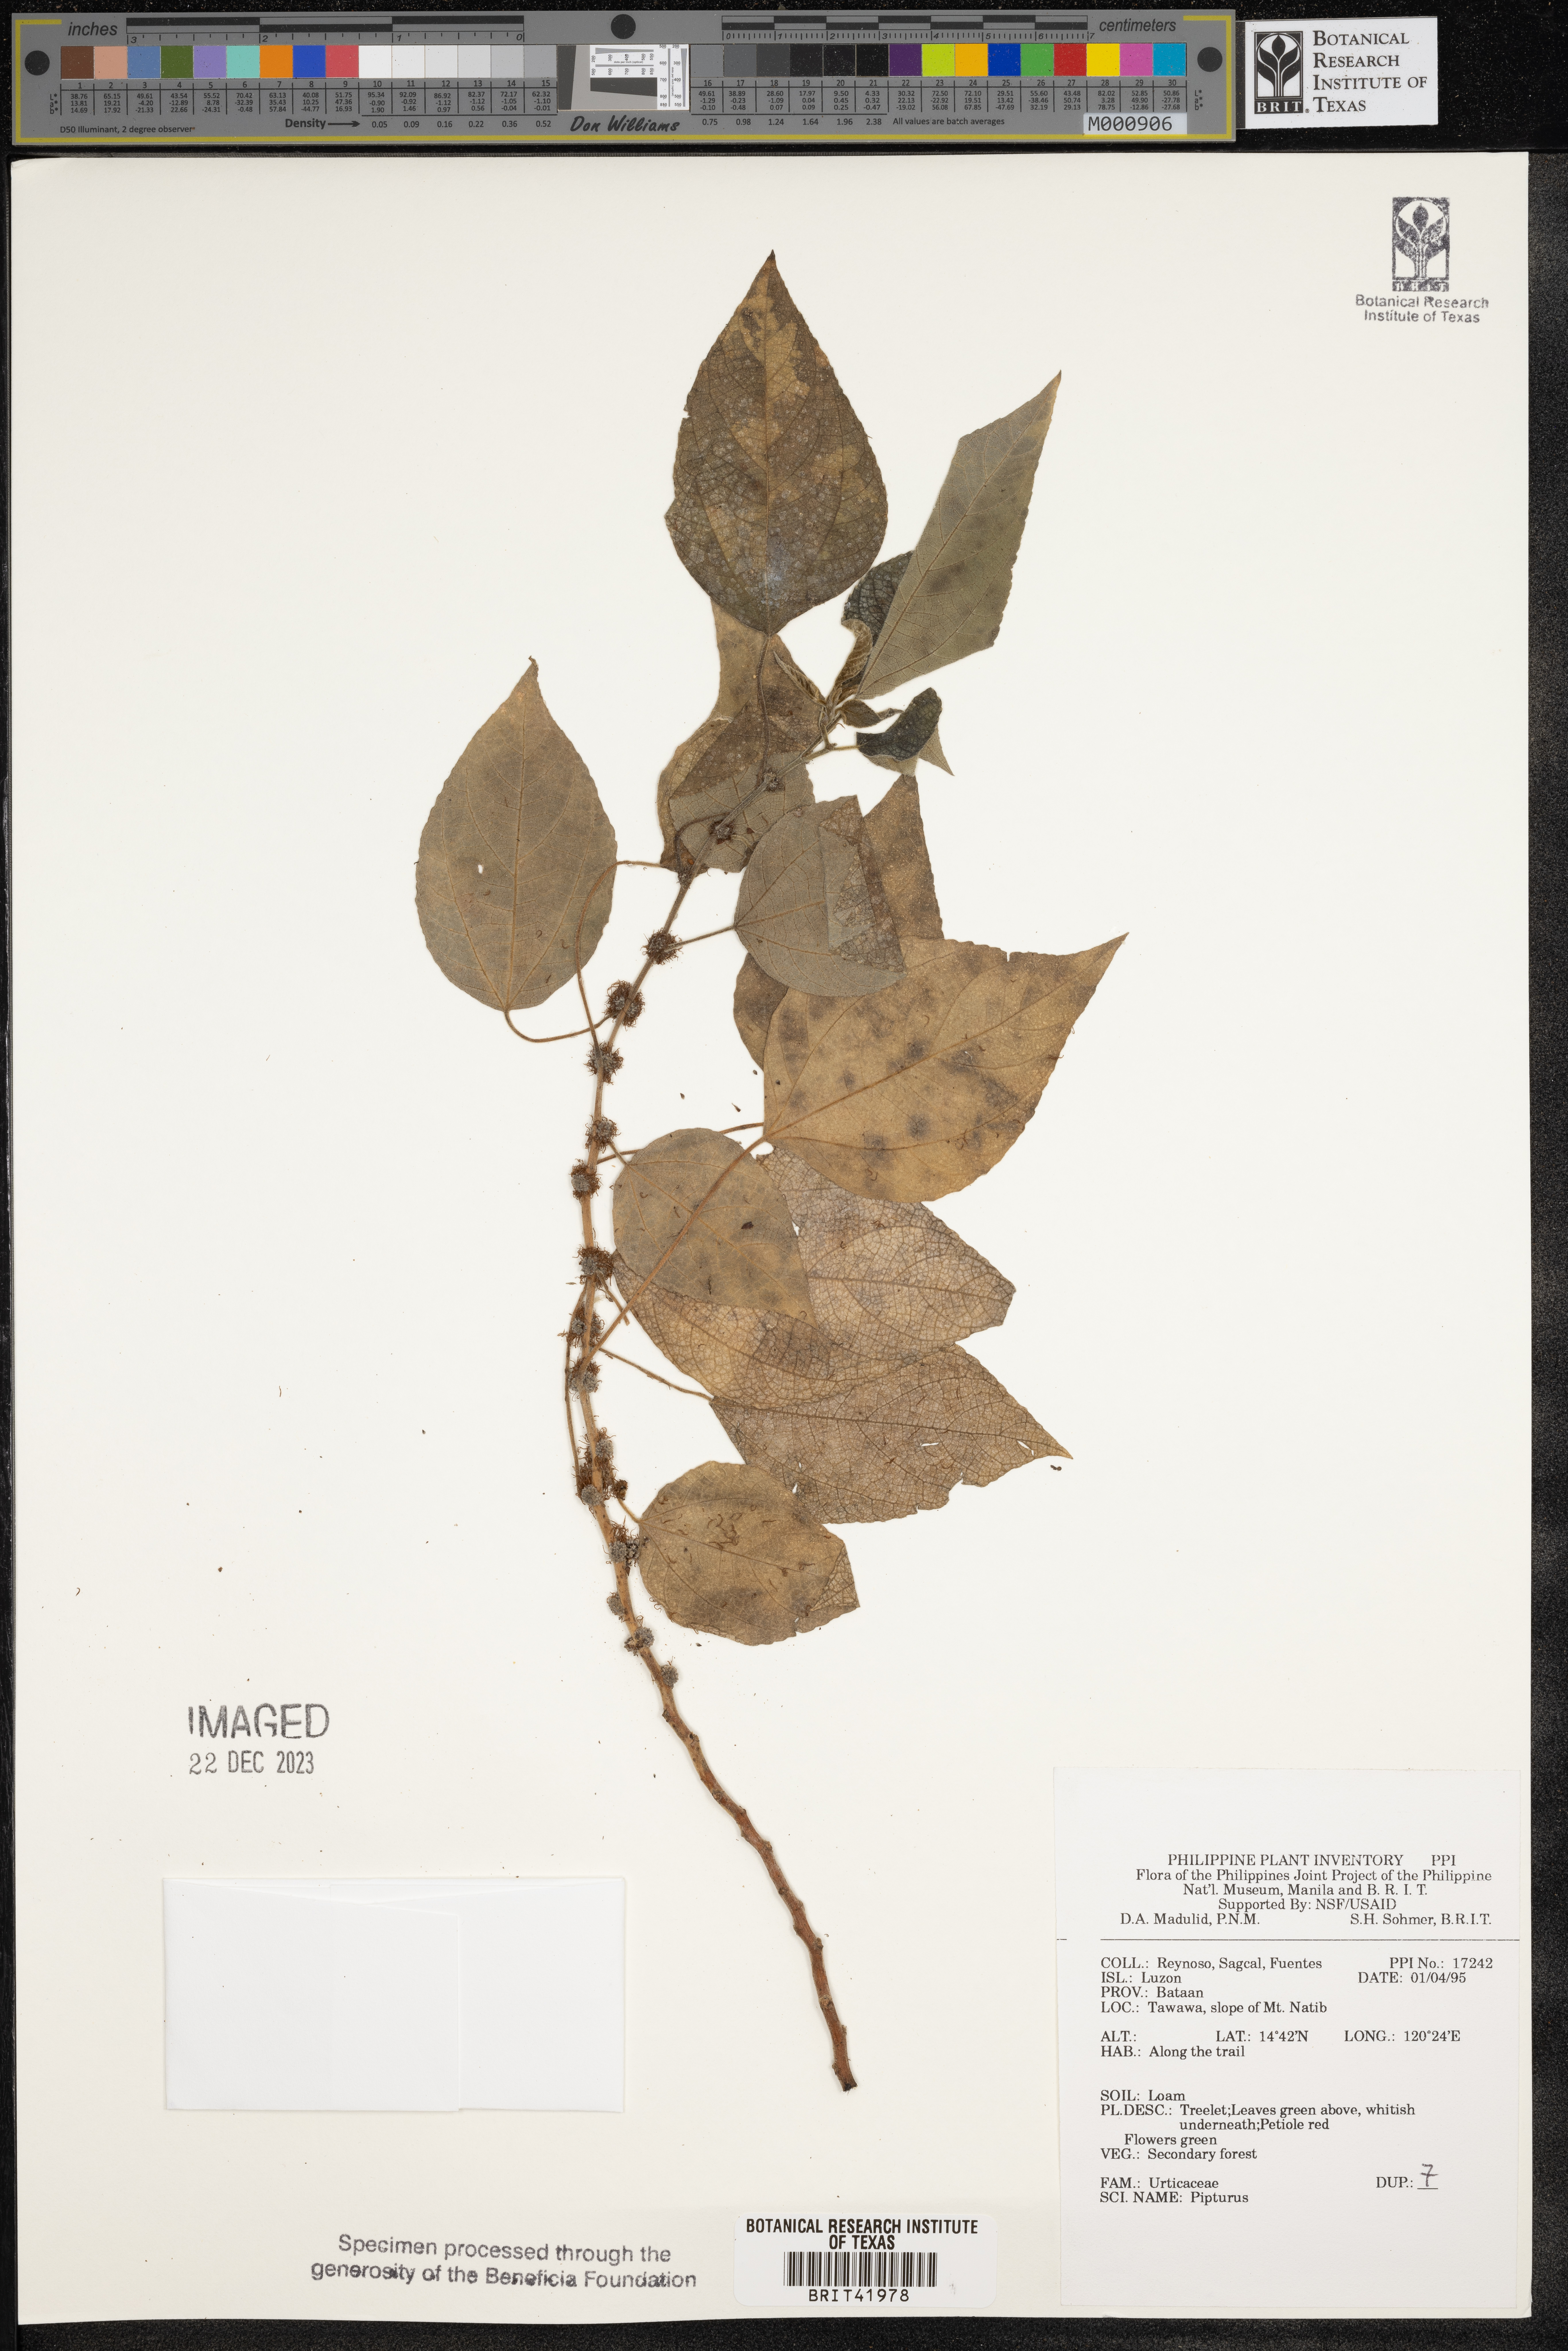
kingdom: Plantae
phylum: Tracheophyta
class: Magnoliopsida
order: Rosales
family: Urticaceae
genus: Pipturus
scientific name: Pipturus
